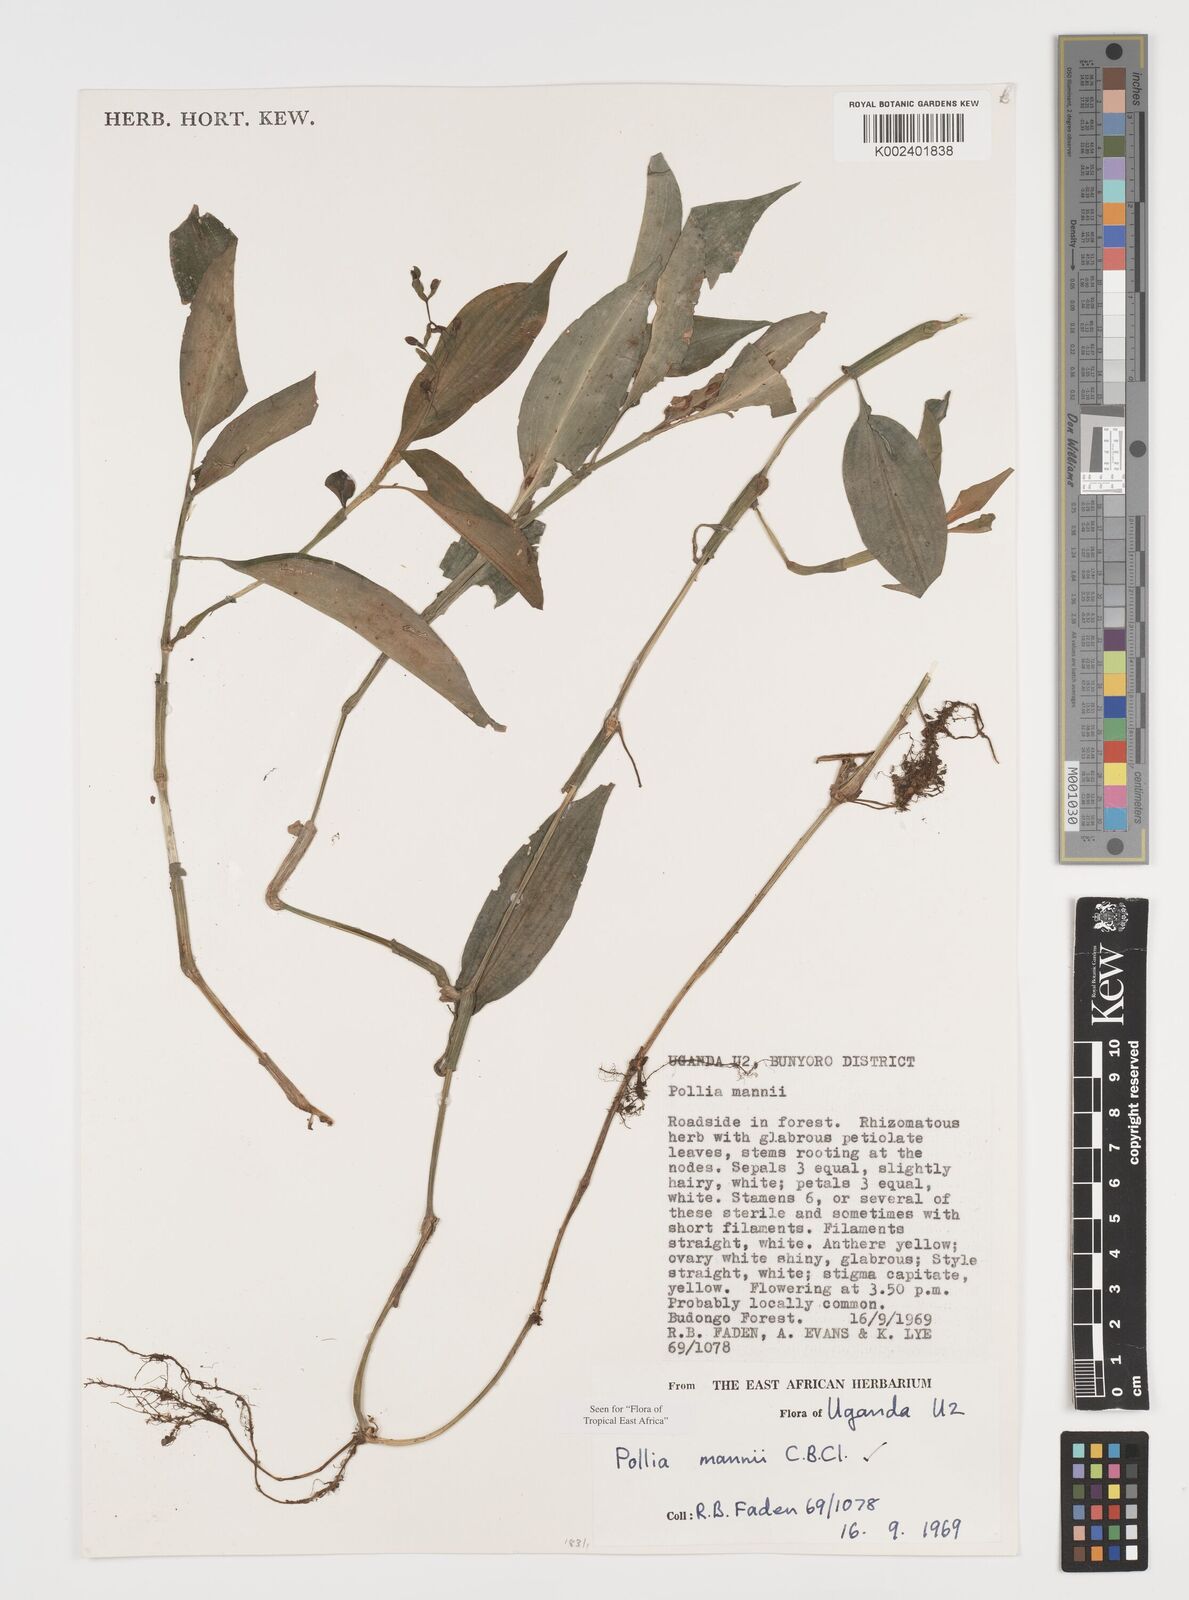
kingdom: Plantae
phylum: Tracheophyta
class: Liliopsida
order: Commelinales
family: Commelinaceae
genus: Pollia
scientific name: Pollia mannii
